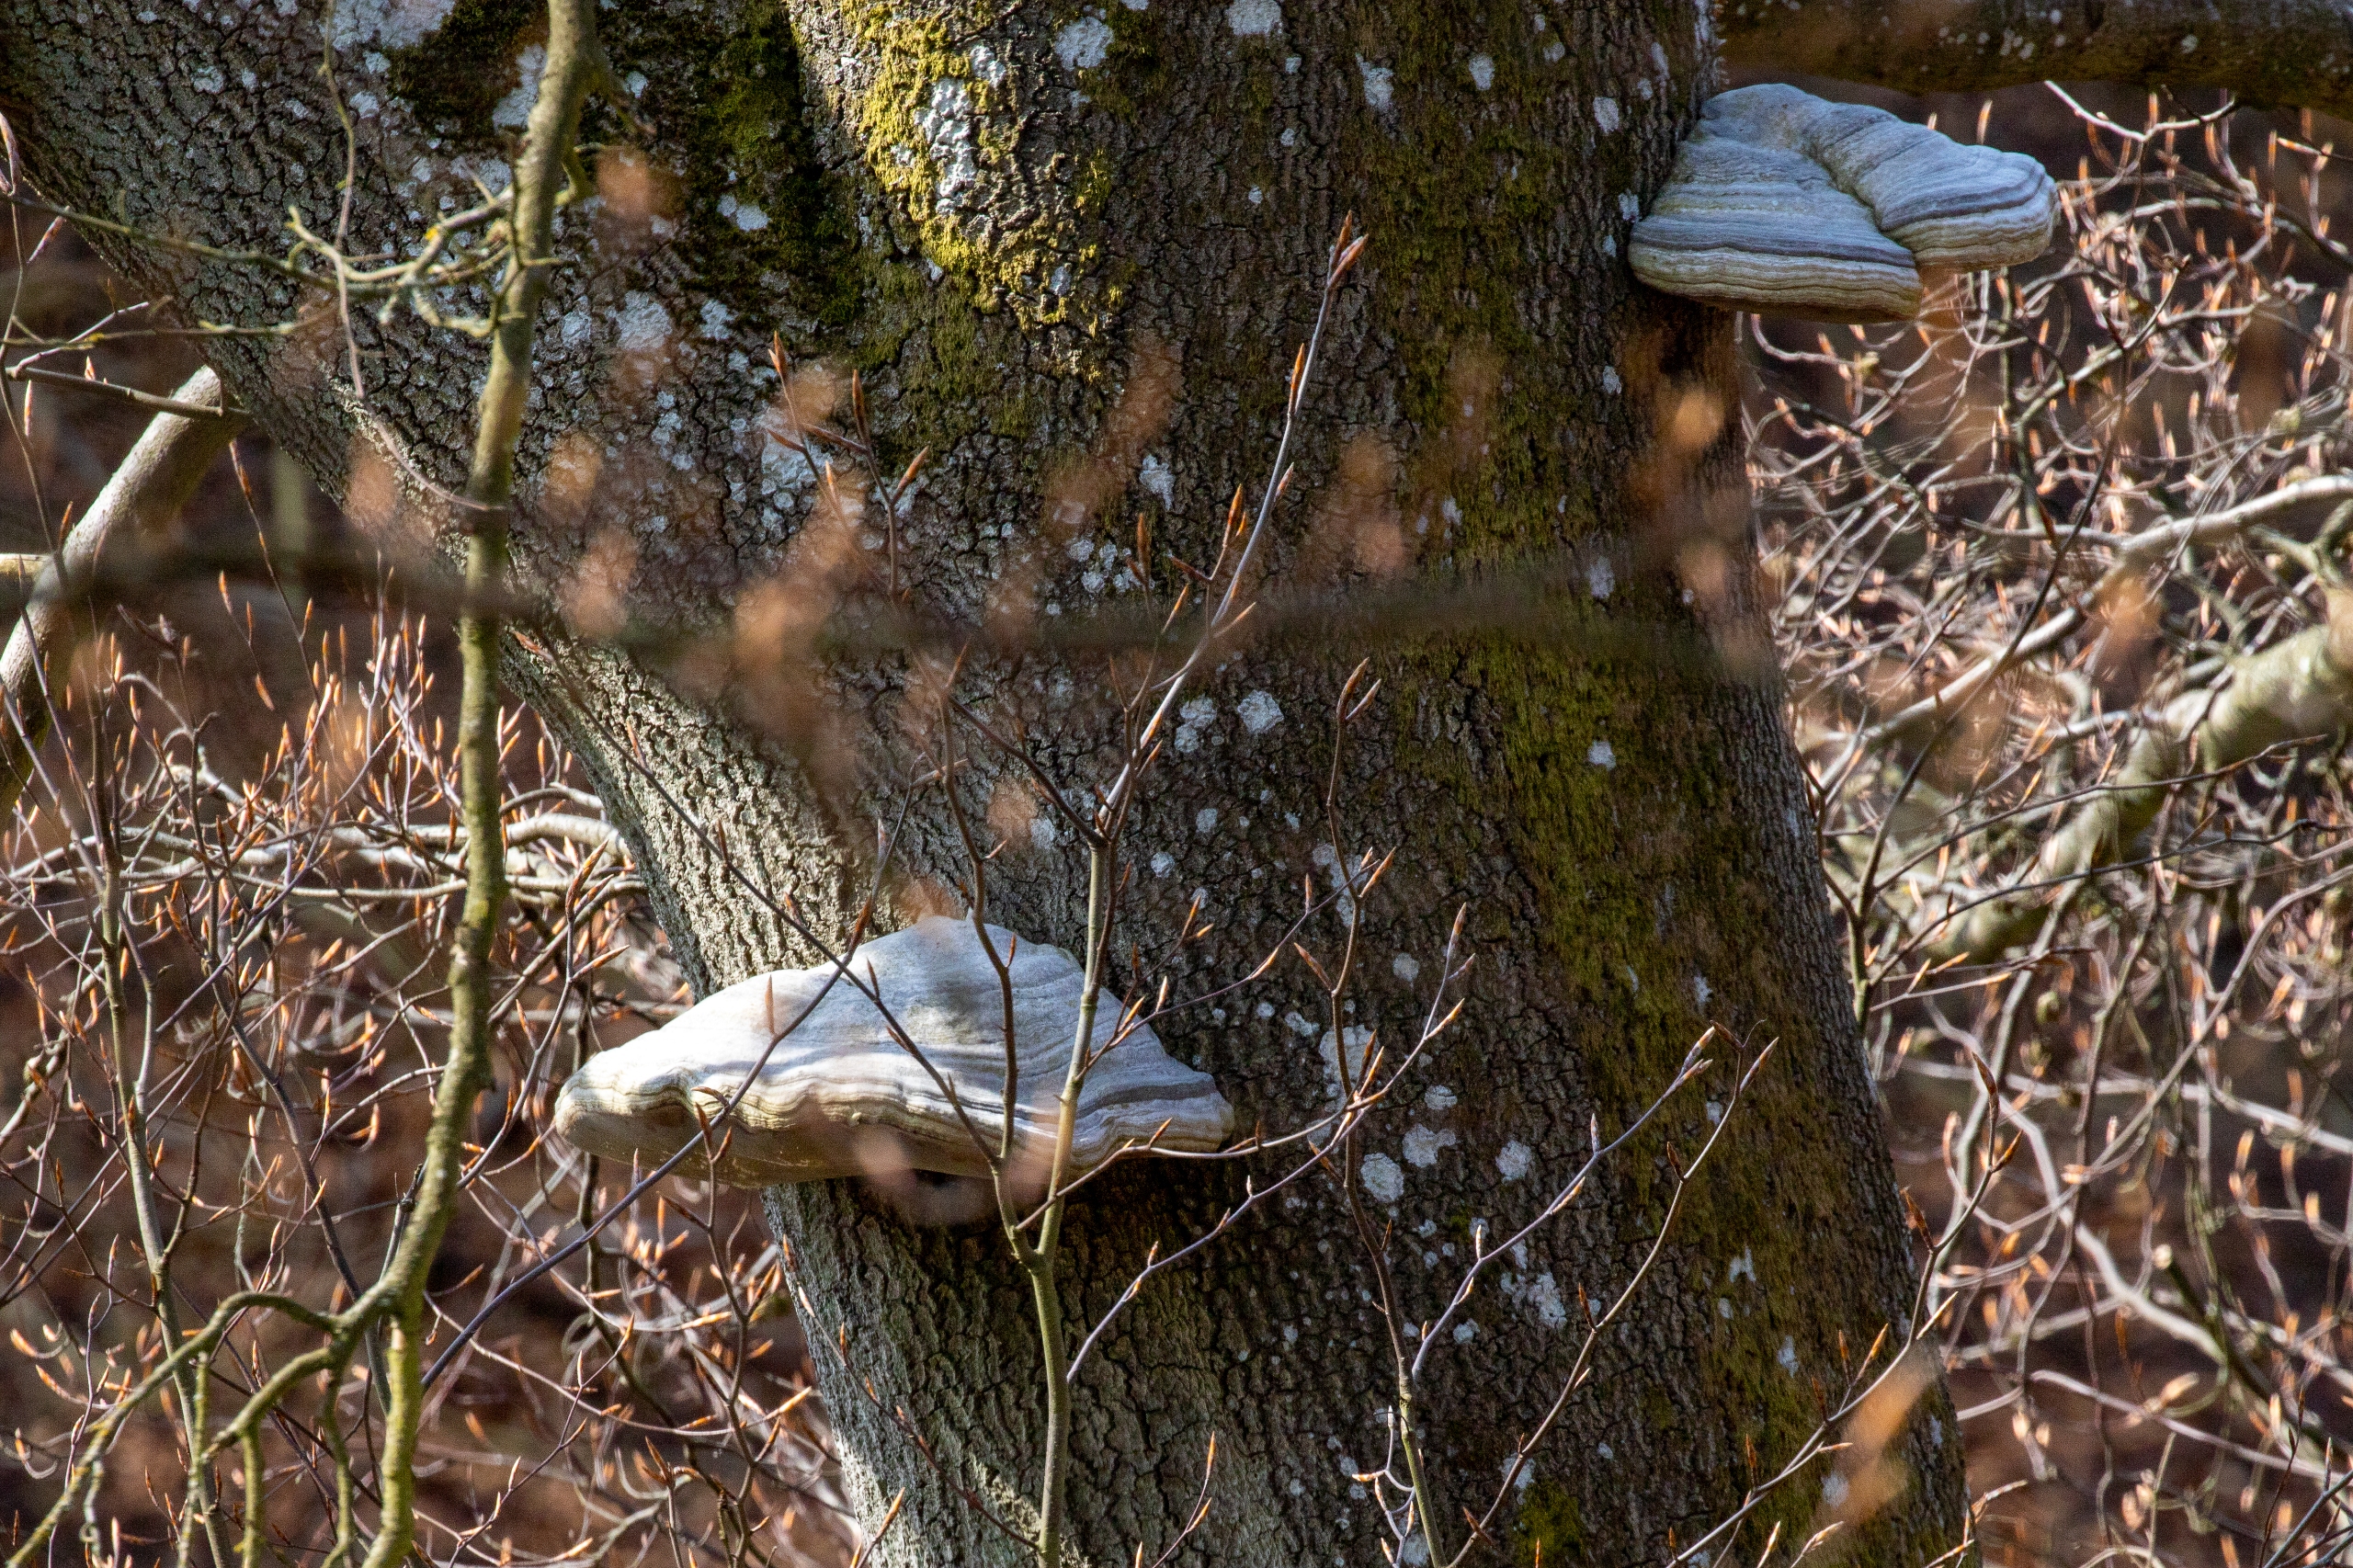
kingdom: Fungi
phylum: Basidiomycota
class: Agaricomycetes
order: Polyporales
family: Polyporaceae
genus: Fomes
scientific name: Fomes fomentarius
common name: Tøndersvamp
